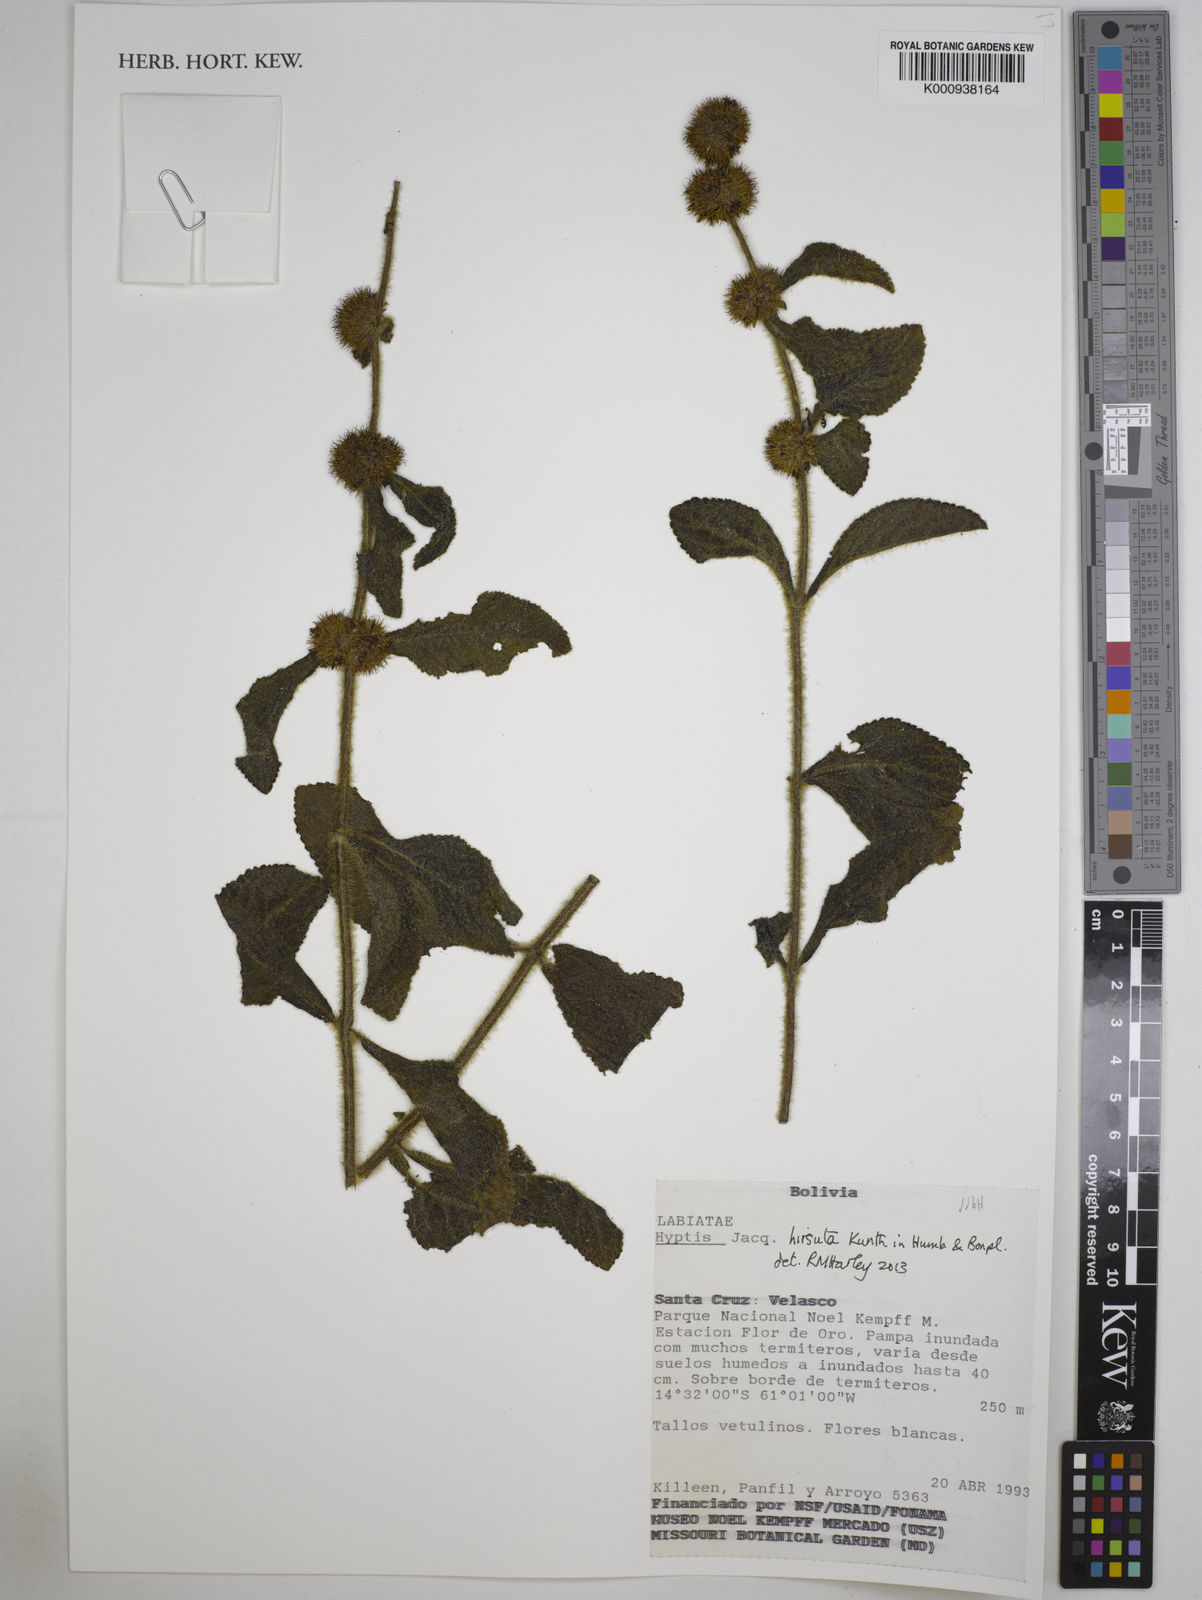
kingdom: Plantae
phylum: Tracheophyta
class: Magnoliopsida
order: Lamiales
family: Lamiaceae
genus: Hyptis
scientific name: Hyptis hirsuta
